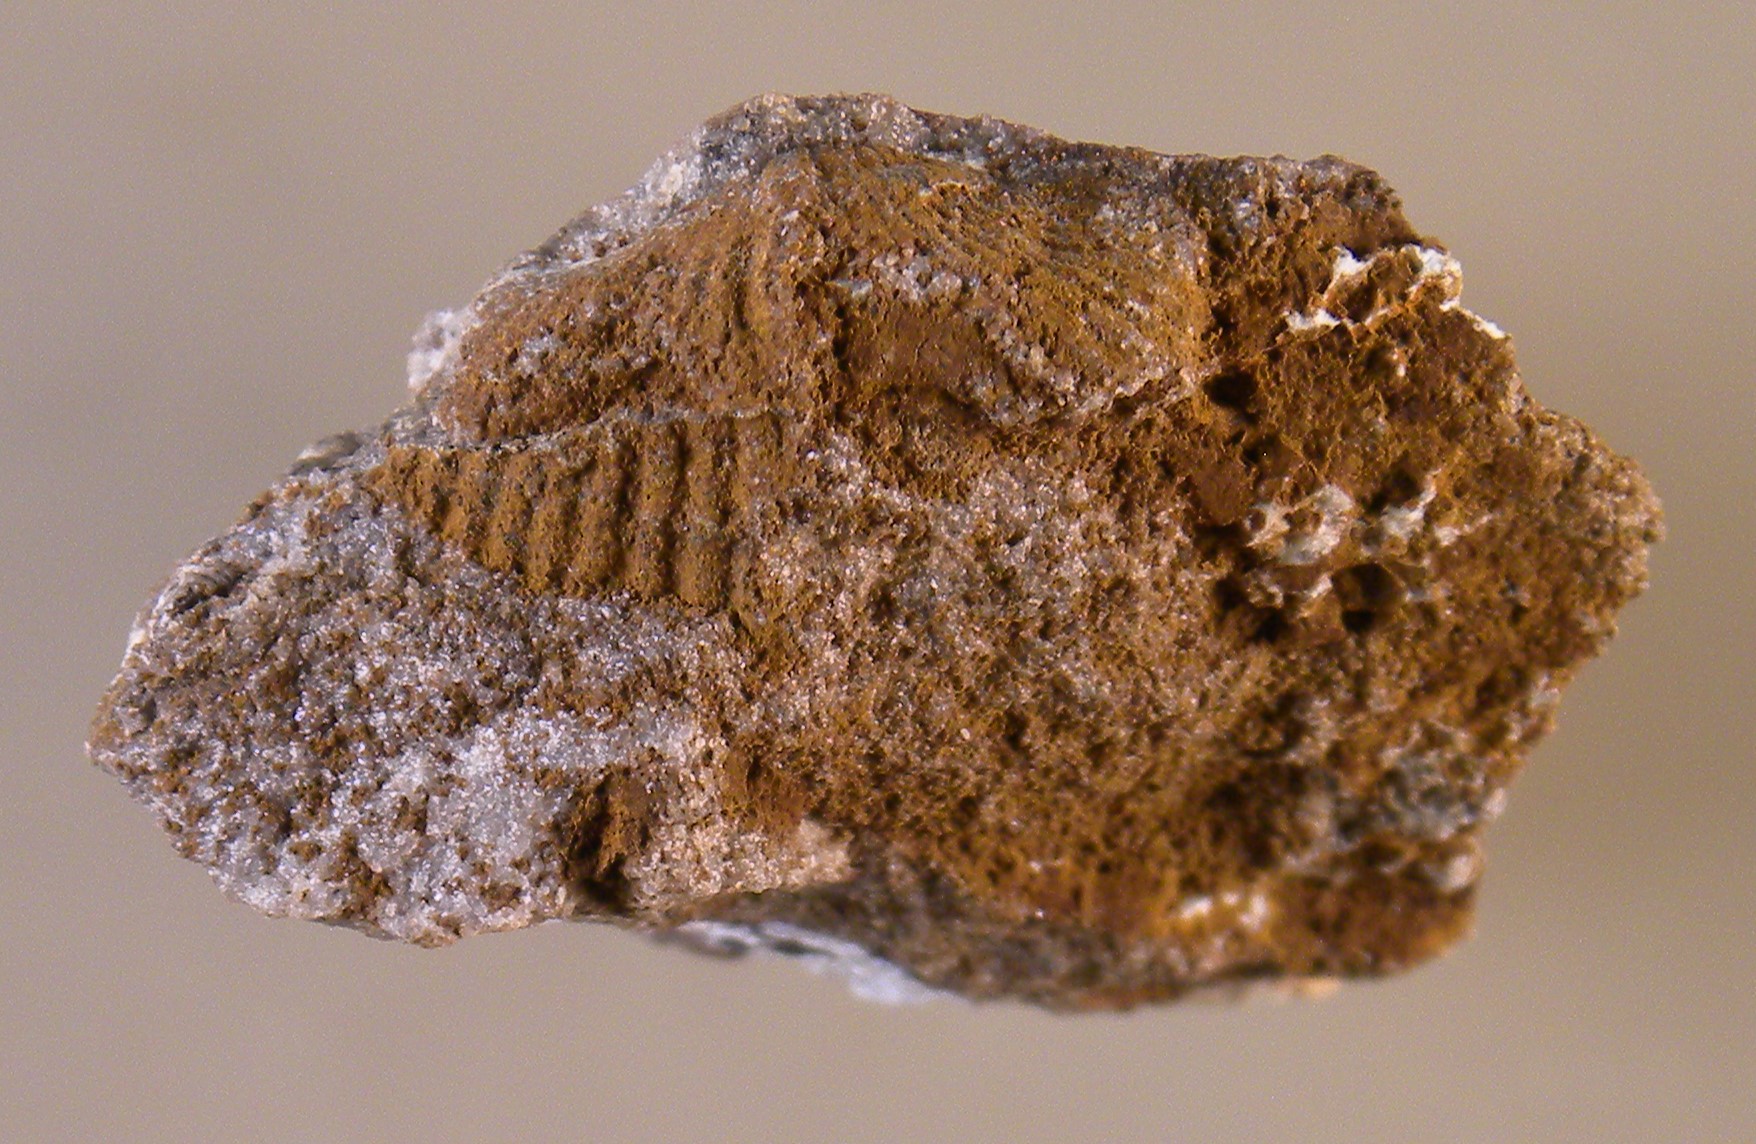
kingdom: Animalia
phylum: Mollusca
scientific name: Mollusca
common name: Mollusca
